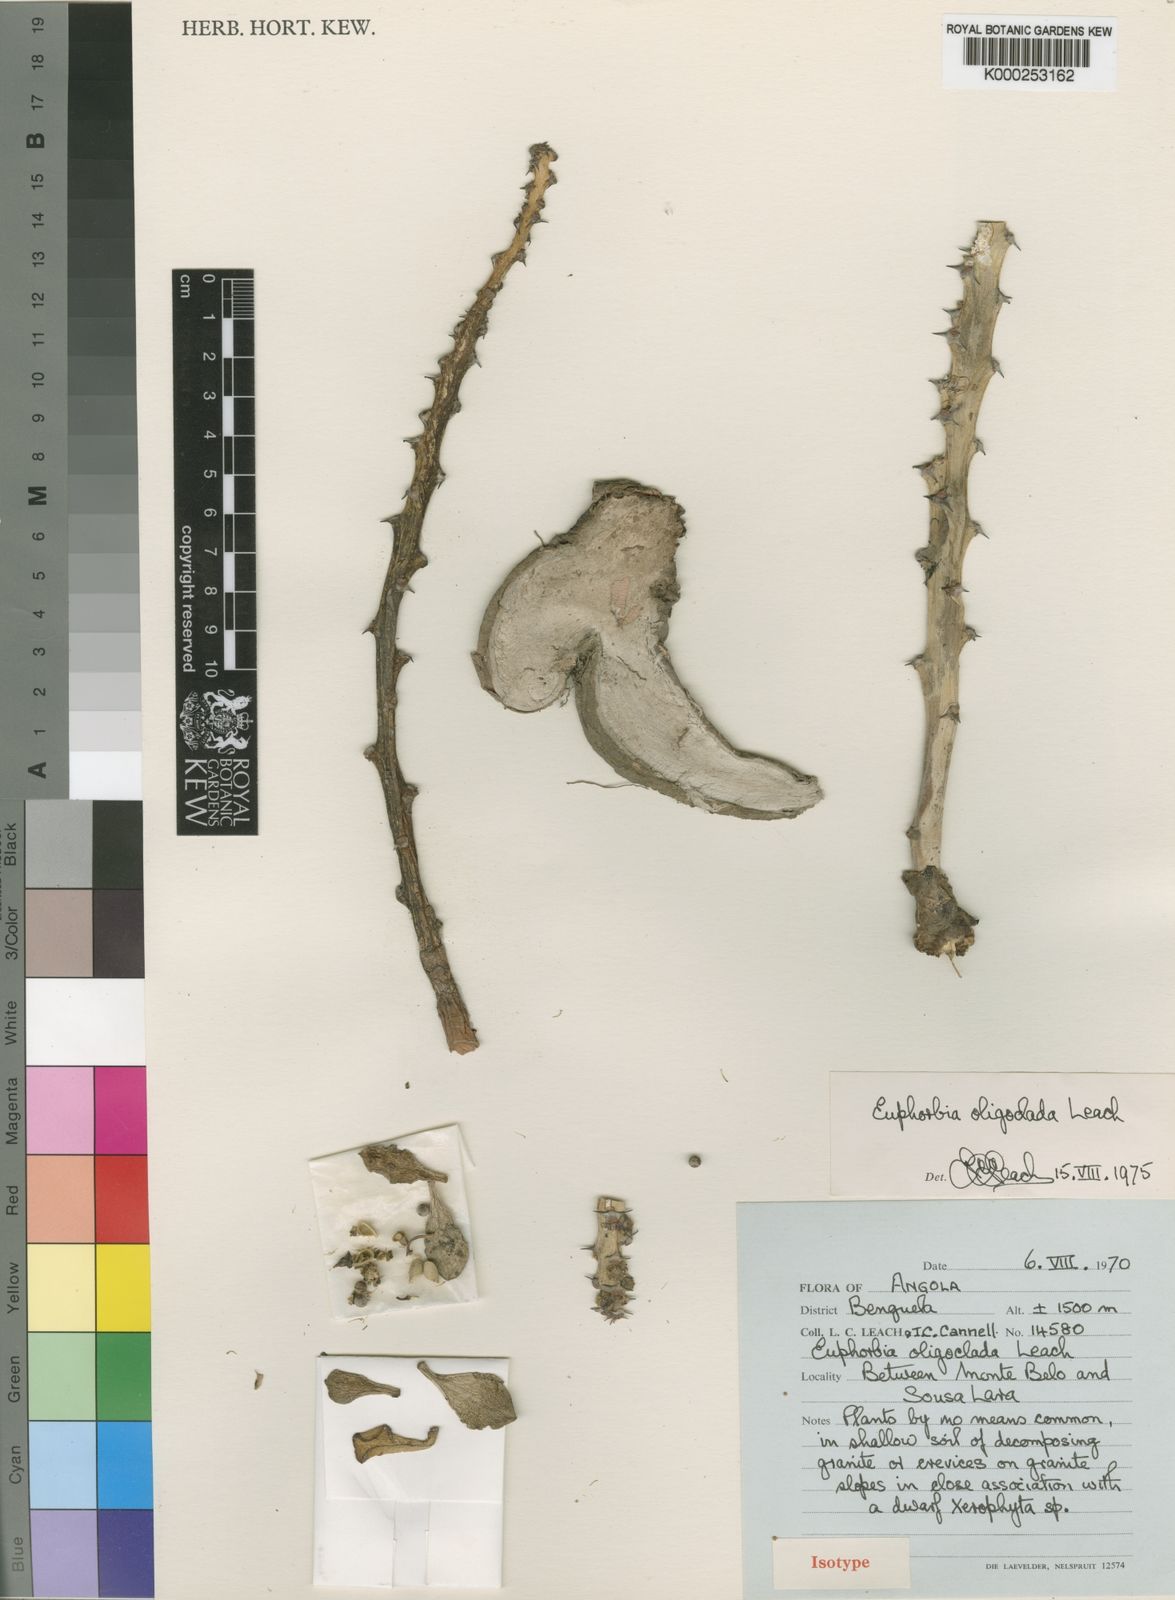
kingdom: Plantae
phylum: Tracheophyta
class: Magnoliopsida
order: Malpighiales
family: Euphorbiaceae
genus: Euphorbia
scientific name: Euphorbia oligoclada
